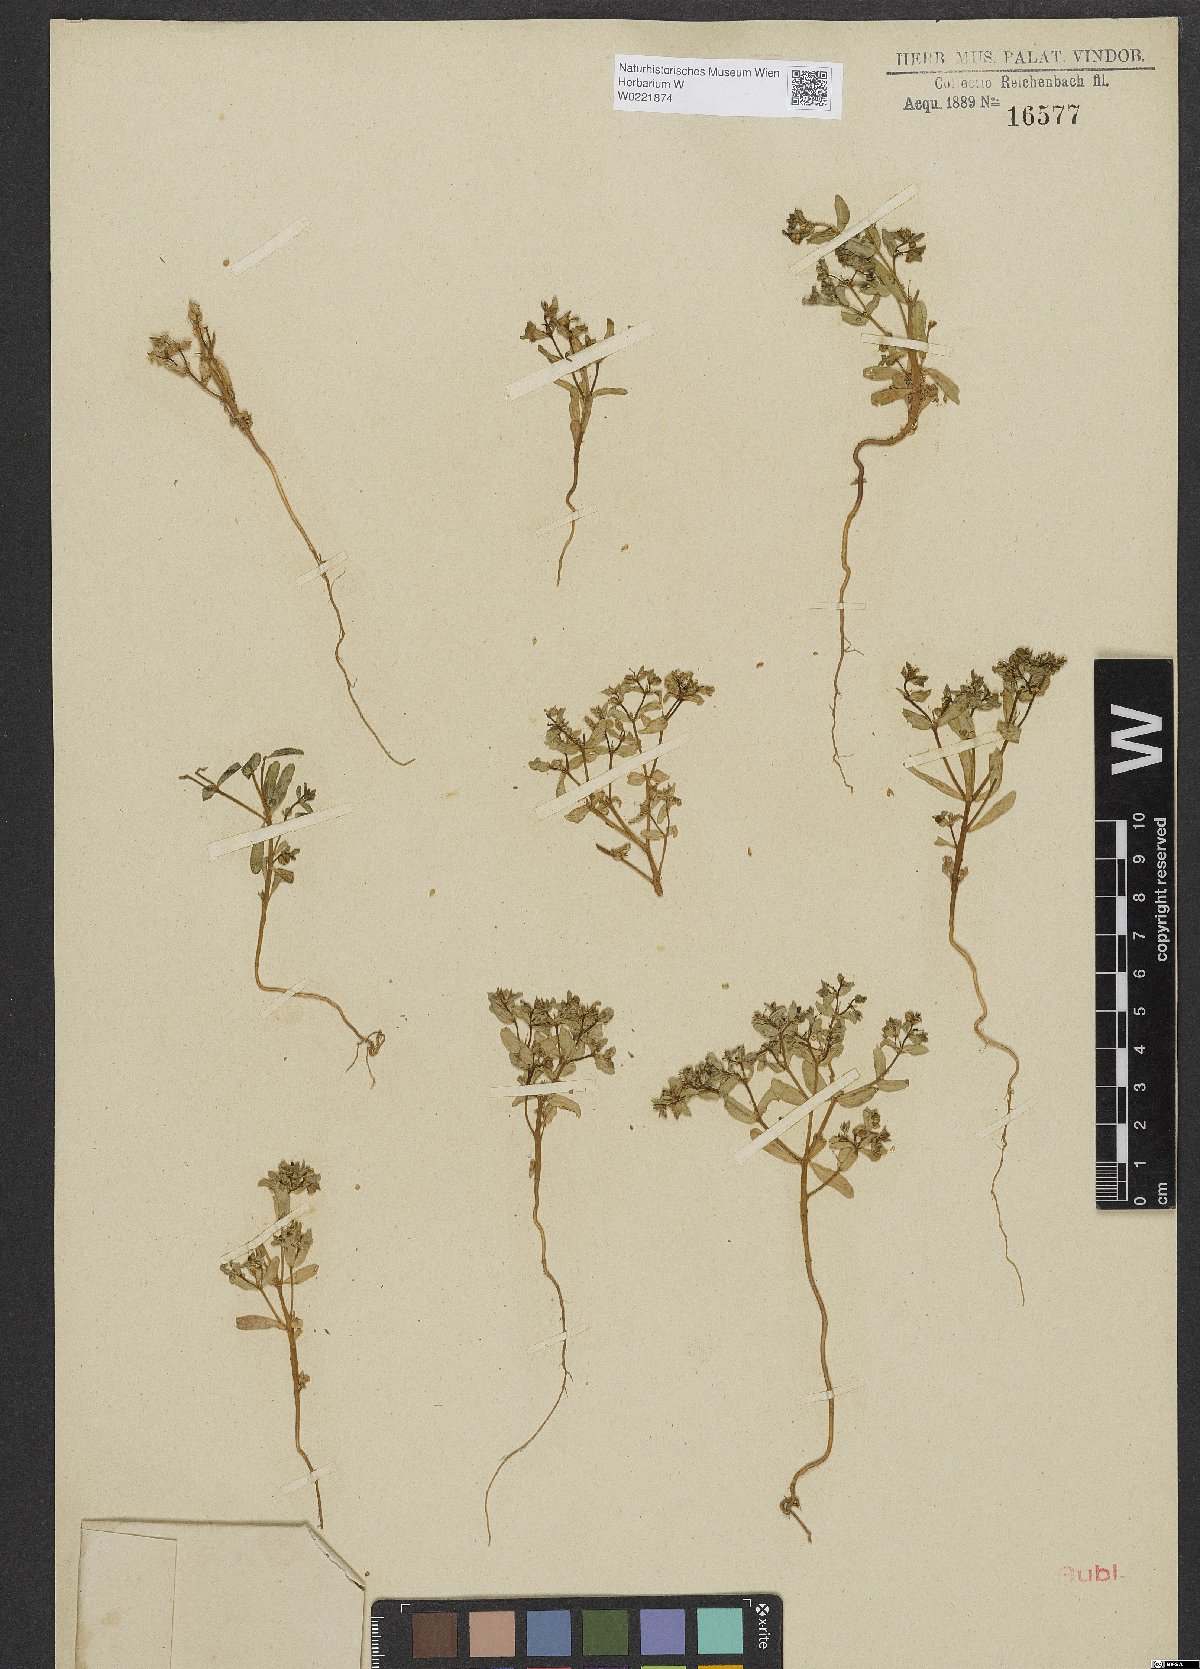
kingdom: Plantae
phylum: Tracheophyta
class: Magnoliopsida
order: Malpighiales
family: Euphorbiaceae
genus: Euphorbia
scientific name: Euphorbia arvalis
